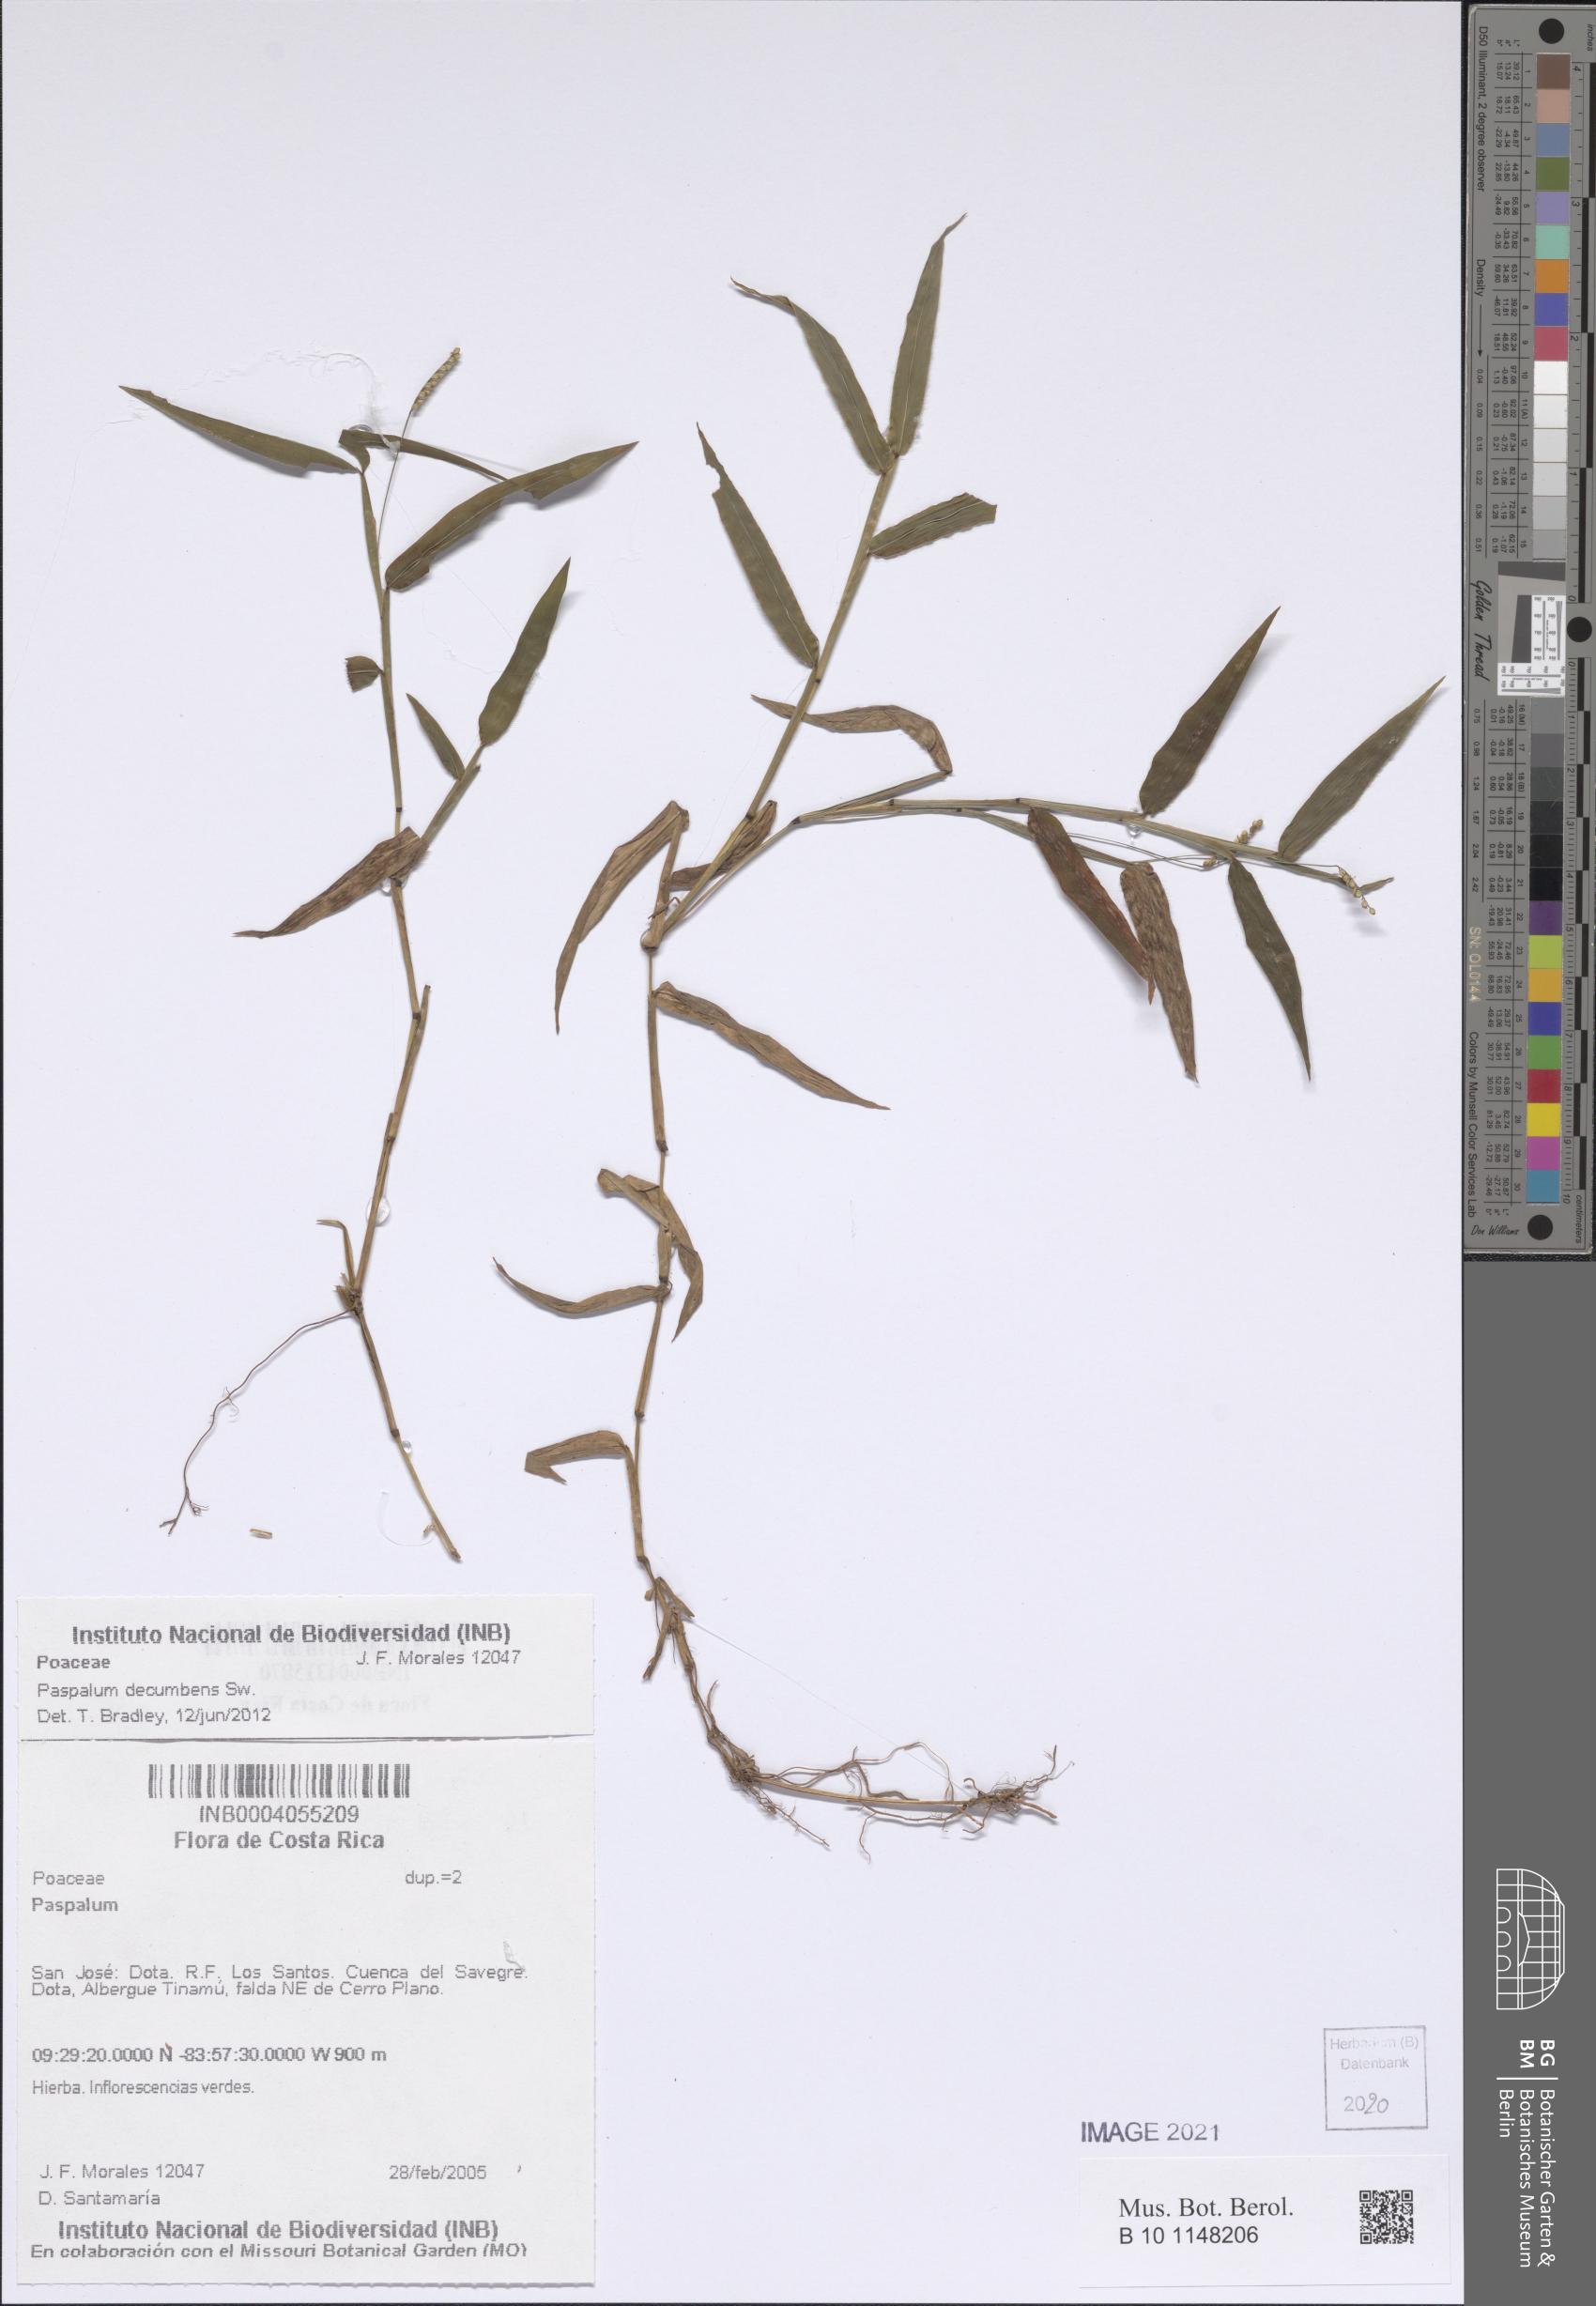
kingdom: Plantae
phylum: Tracheophyta
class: Liliopsida
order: Poales
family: Poaceae
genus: Paspalum
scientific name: Paspalum decumbens
